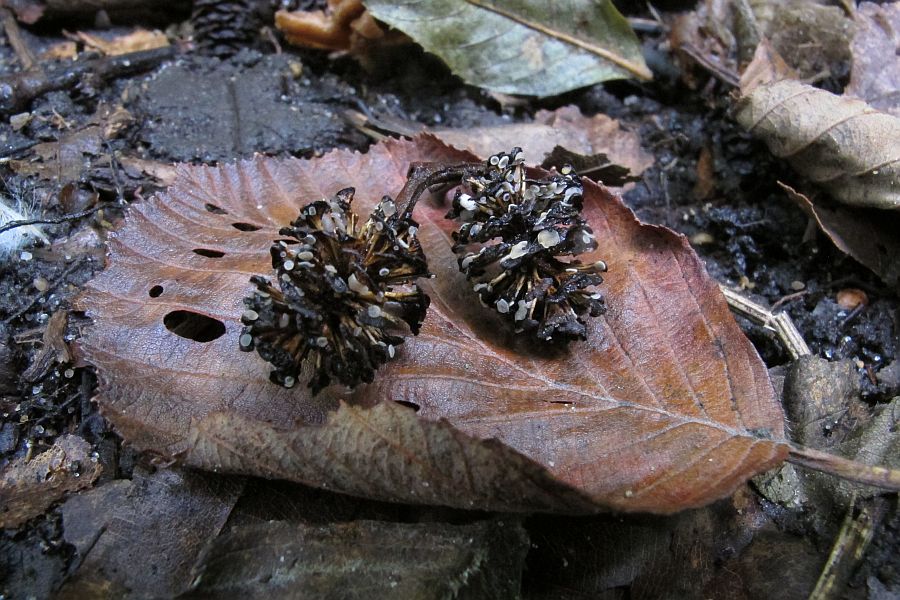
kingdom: Fungi
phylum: Ascomycota
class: Leotiomycetes
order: Helotiales
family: Mollisiaceae
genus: Mollisia
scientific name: Mollisia amenticola
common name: ellekogle-gråskive
